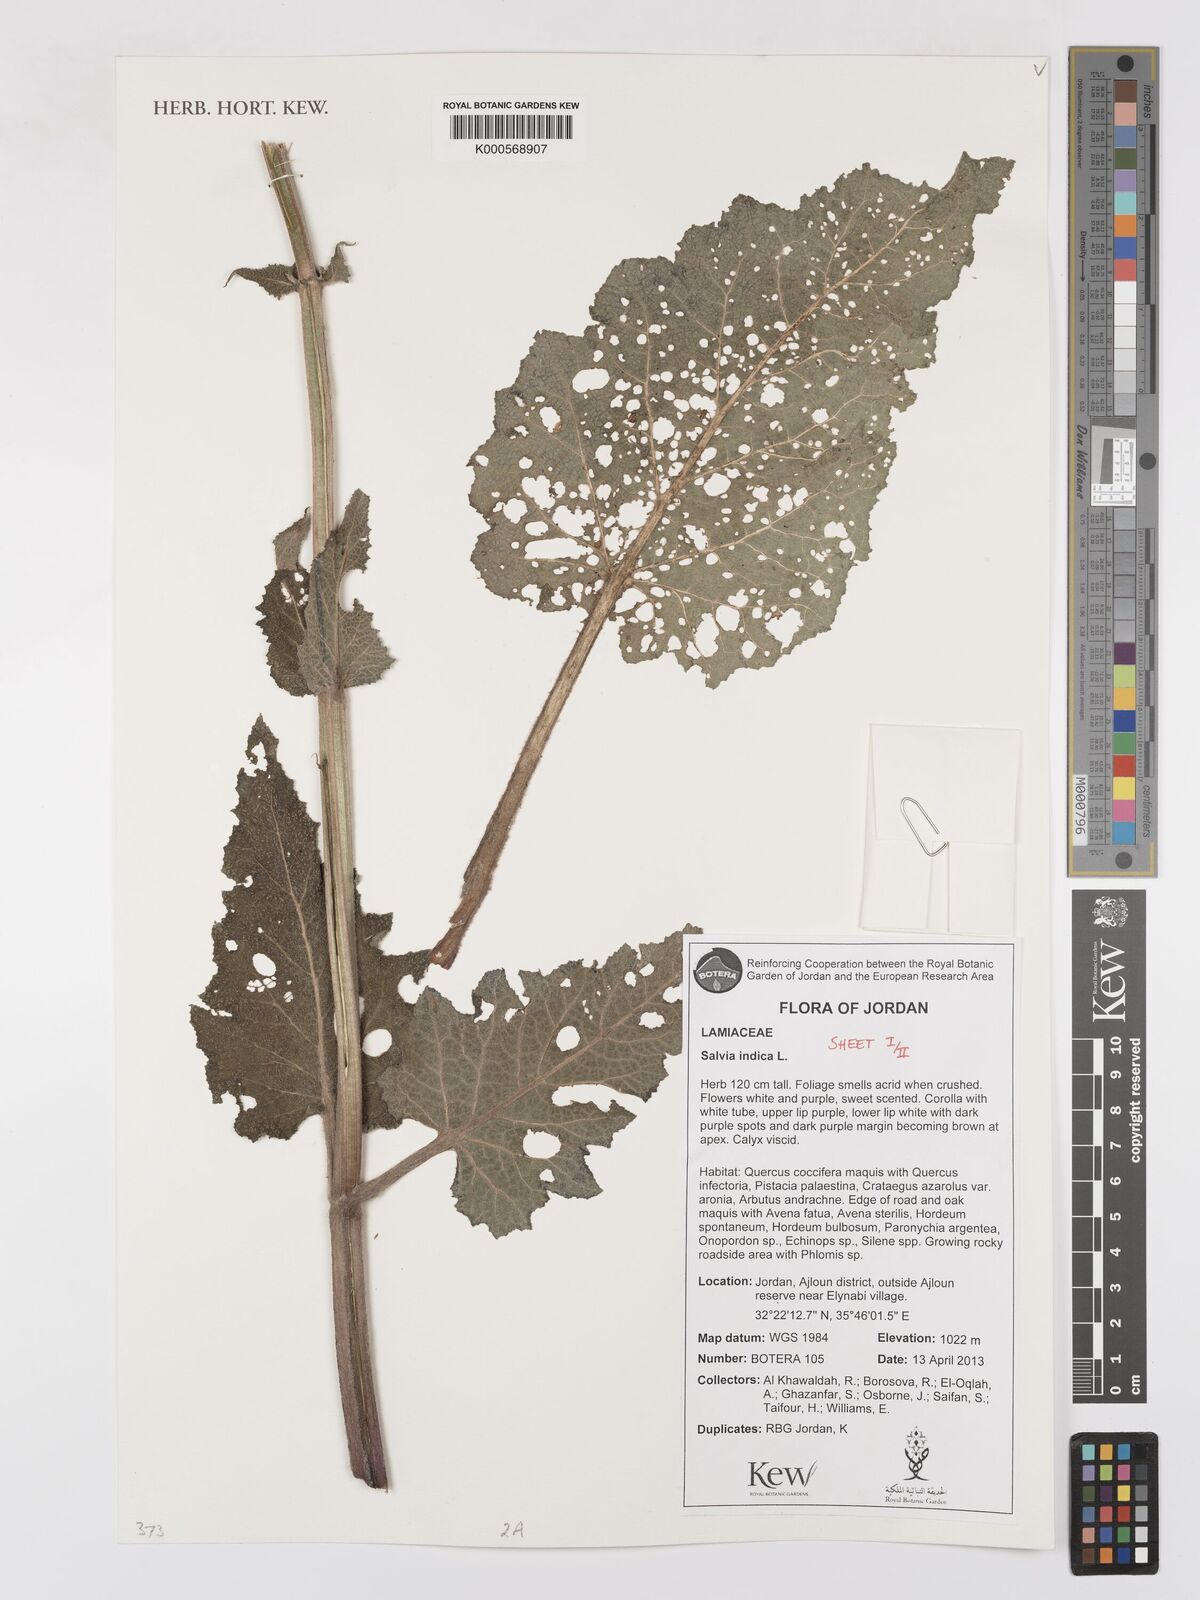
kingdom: Plantae
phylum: Tracheophyta
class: Magnoliopsida
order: Lamiales
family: Lamiaceae
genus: Salvia
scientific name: Salvia indica
